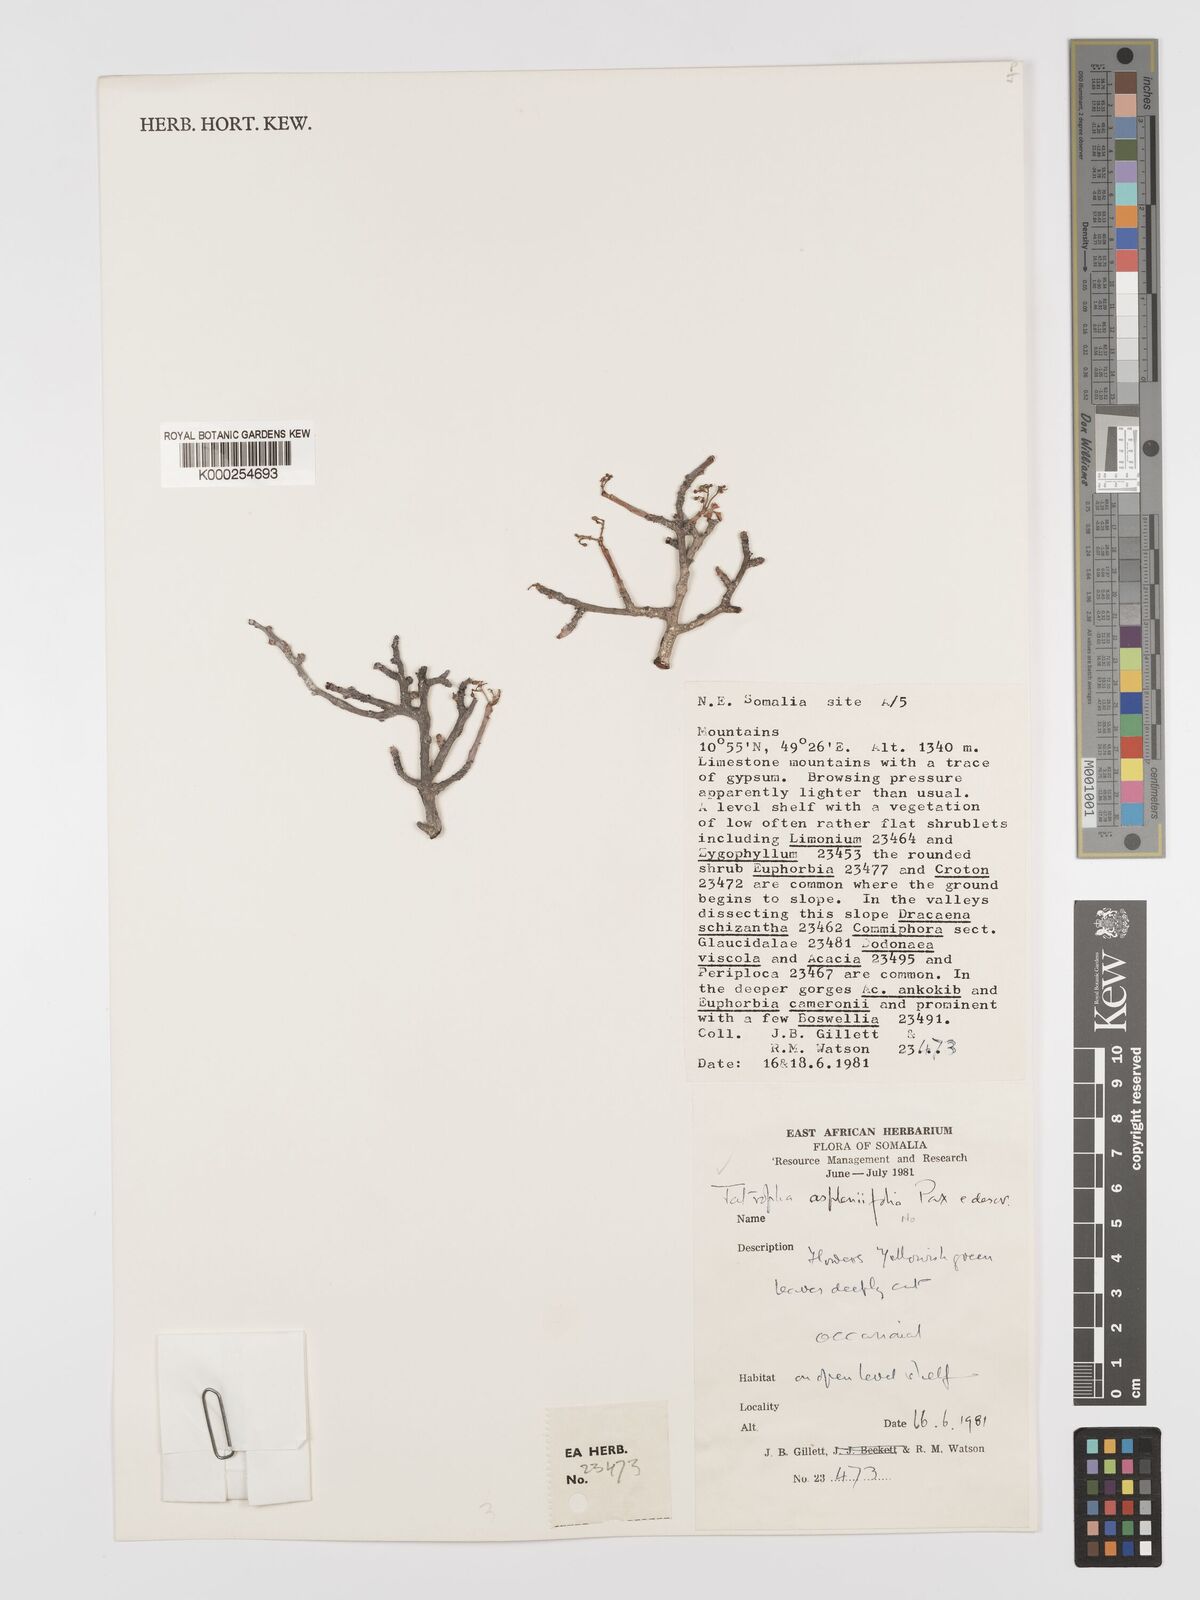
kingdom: Plantae
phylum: Tracheophyta
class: Magnoliopsida
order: Malpighiales
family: Euphorbiaceae
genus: Jatropha
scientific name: Jatropha aspleniifolia
